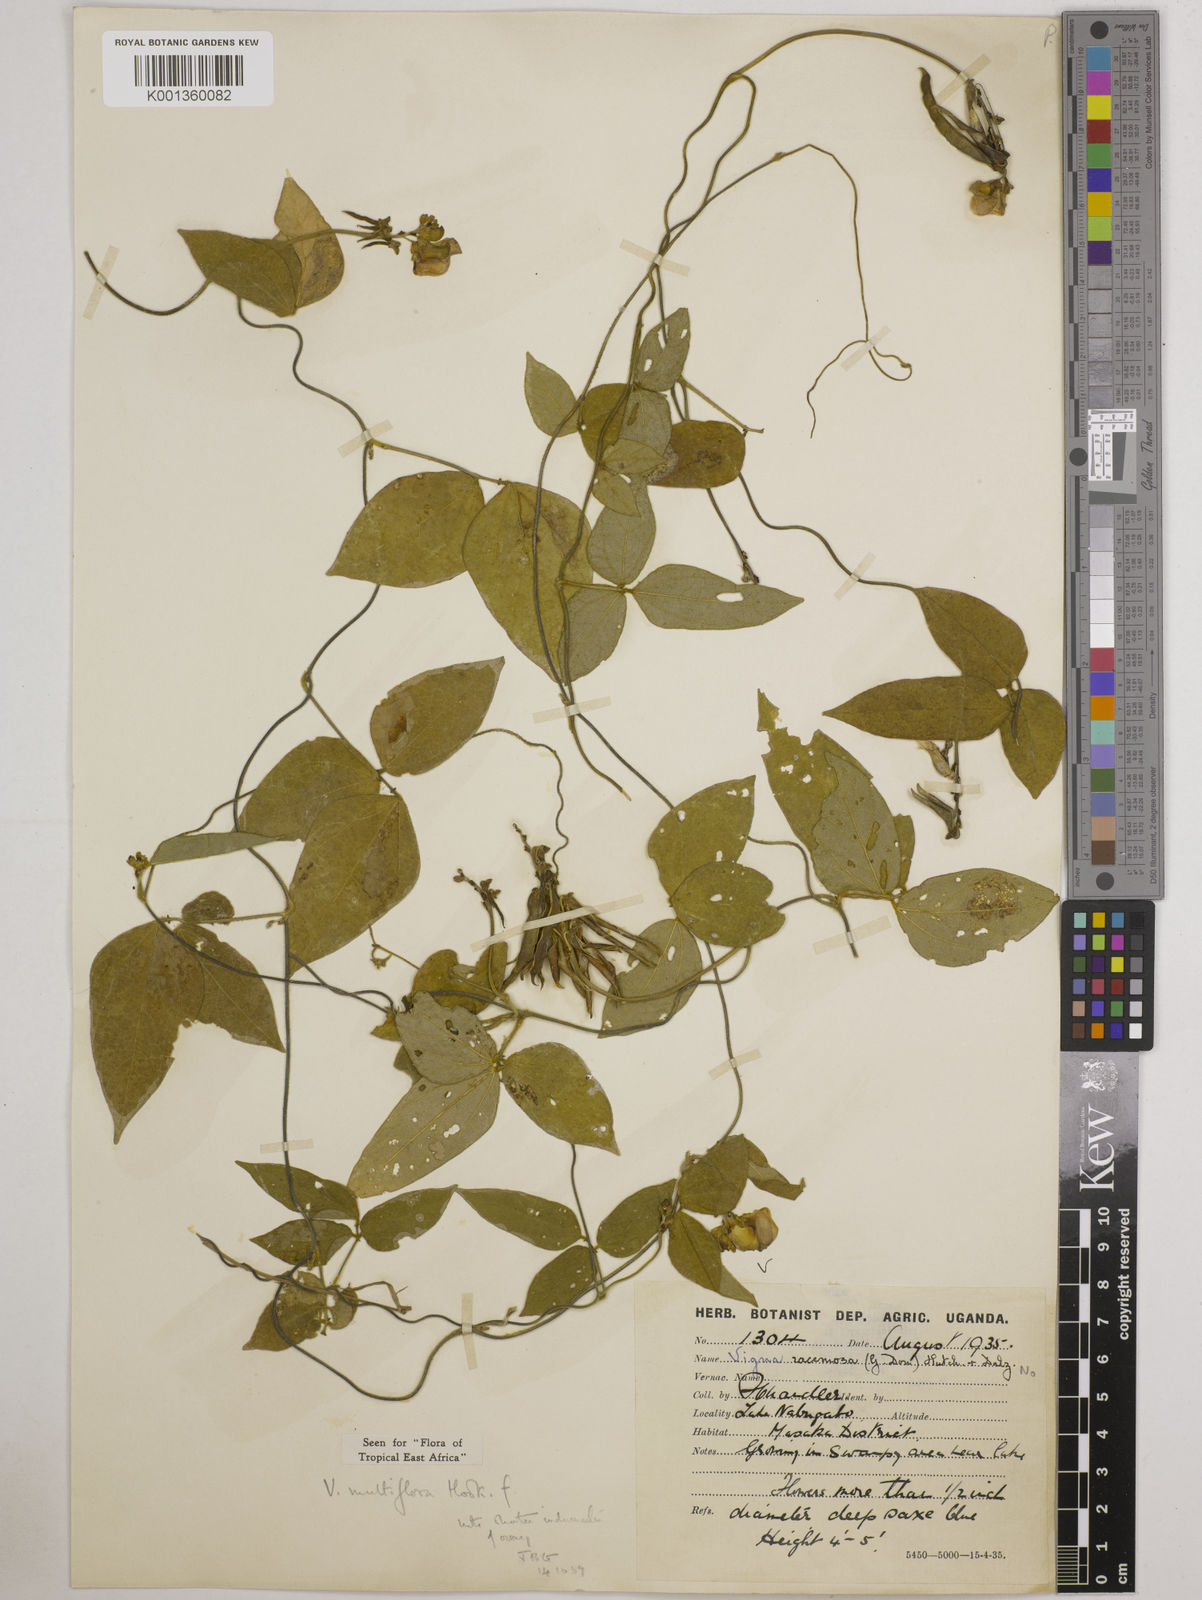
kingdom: Plantae
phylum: Tracheophyta
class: Magnoliopsida
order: Fabales
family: Fabaceae
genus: Vigna
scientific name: Vigna gracilis
